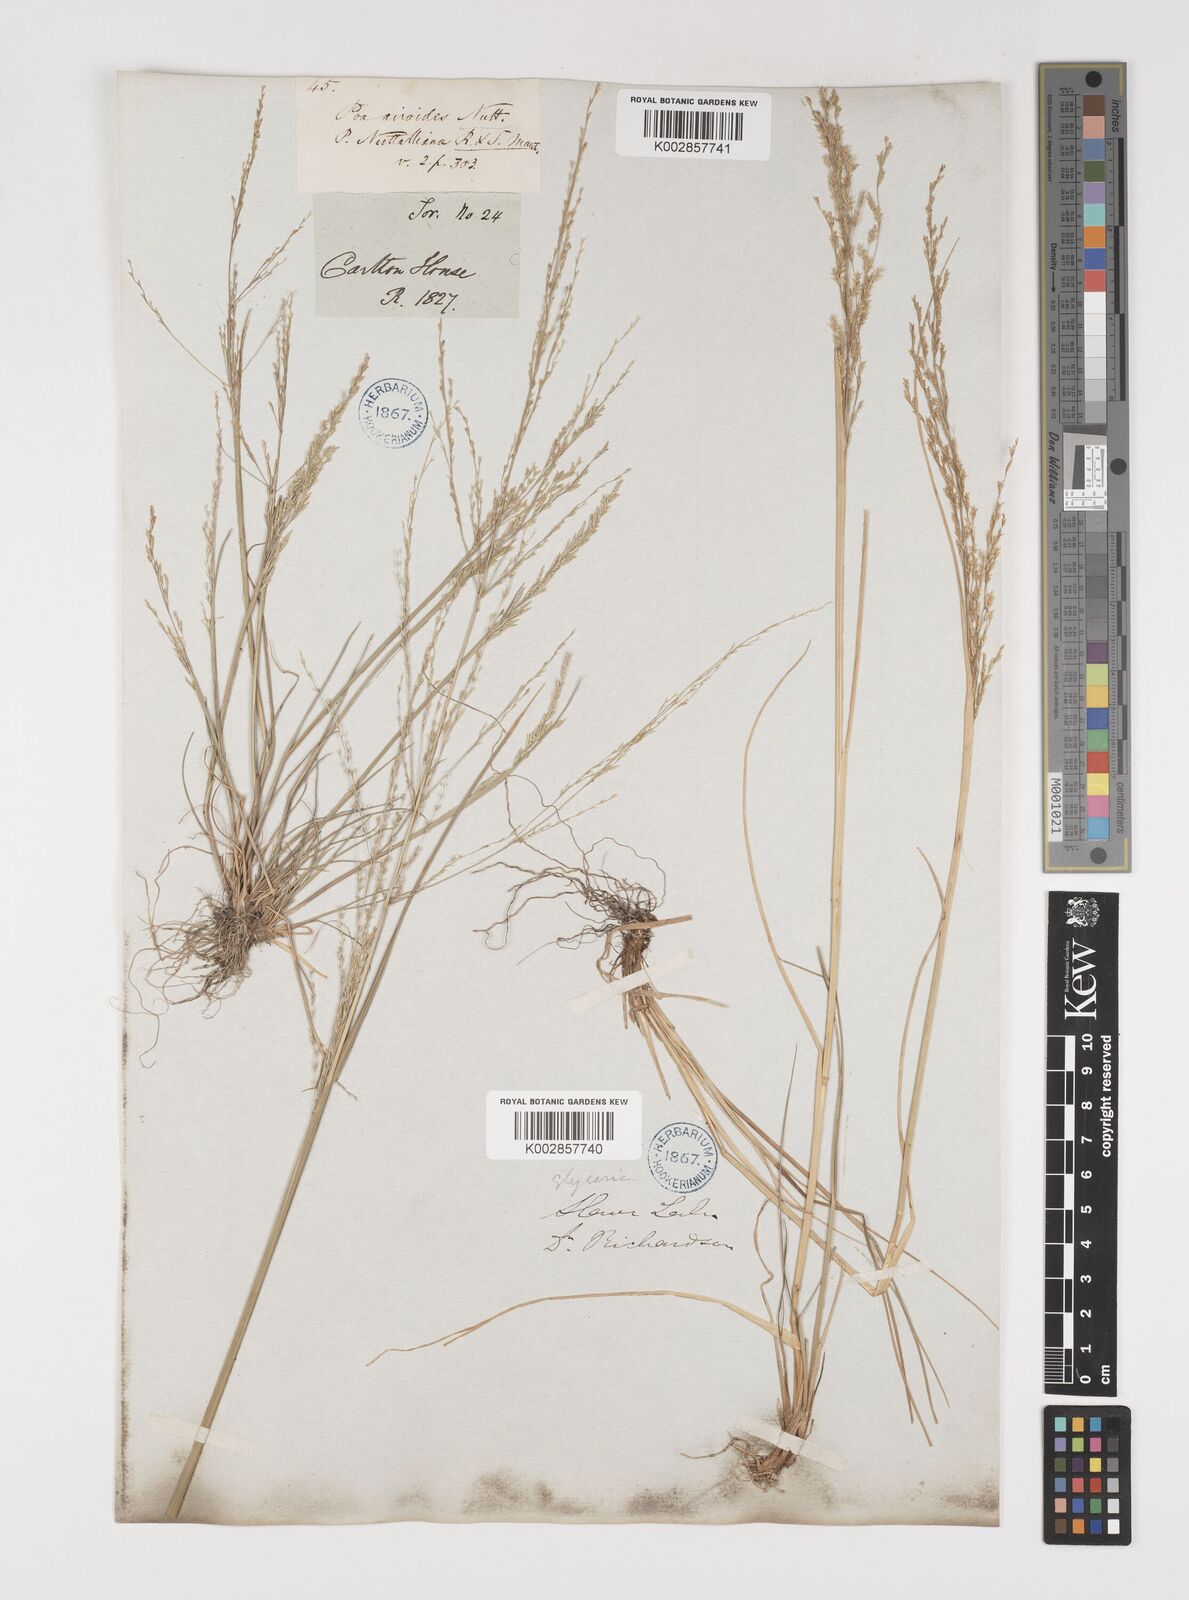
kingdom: Plantae
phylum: Tracheophyta
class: Liliopsida
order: Poales
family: Poaceae
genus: Puccinellia
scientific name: Puccinellia nuttalliana
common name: Nuttall's alkali grass
